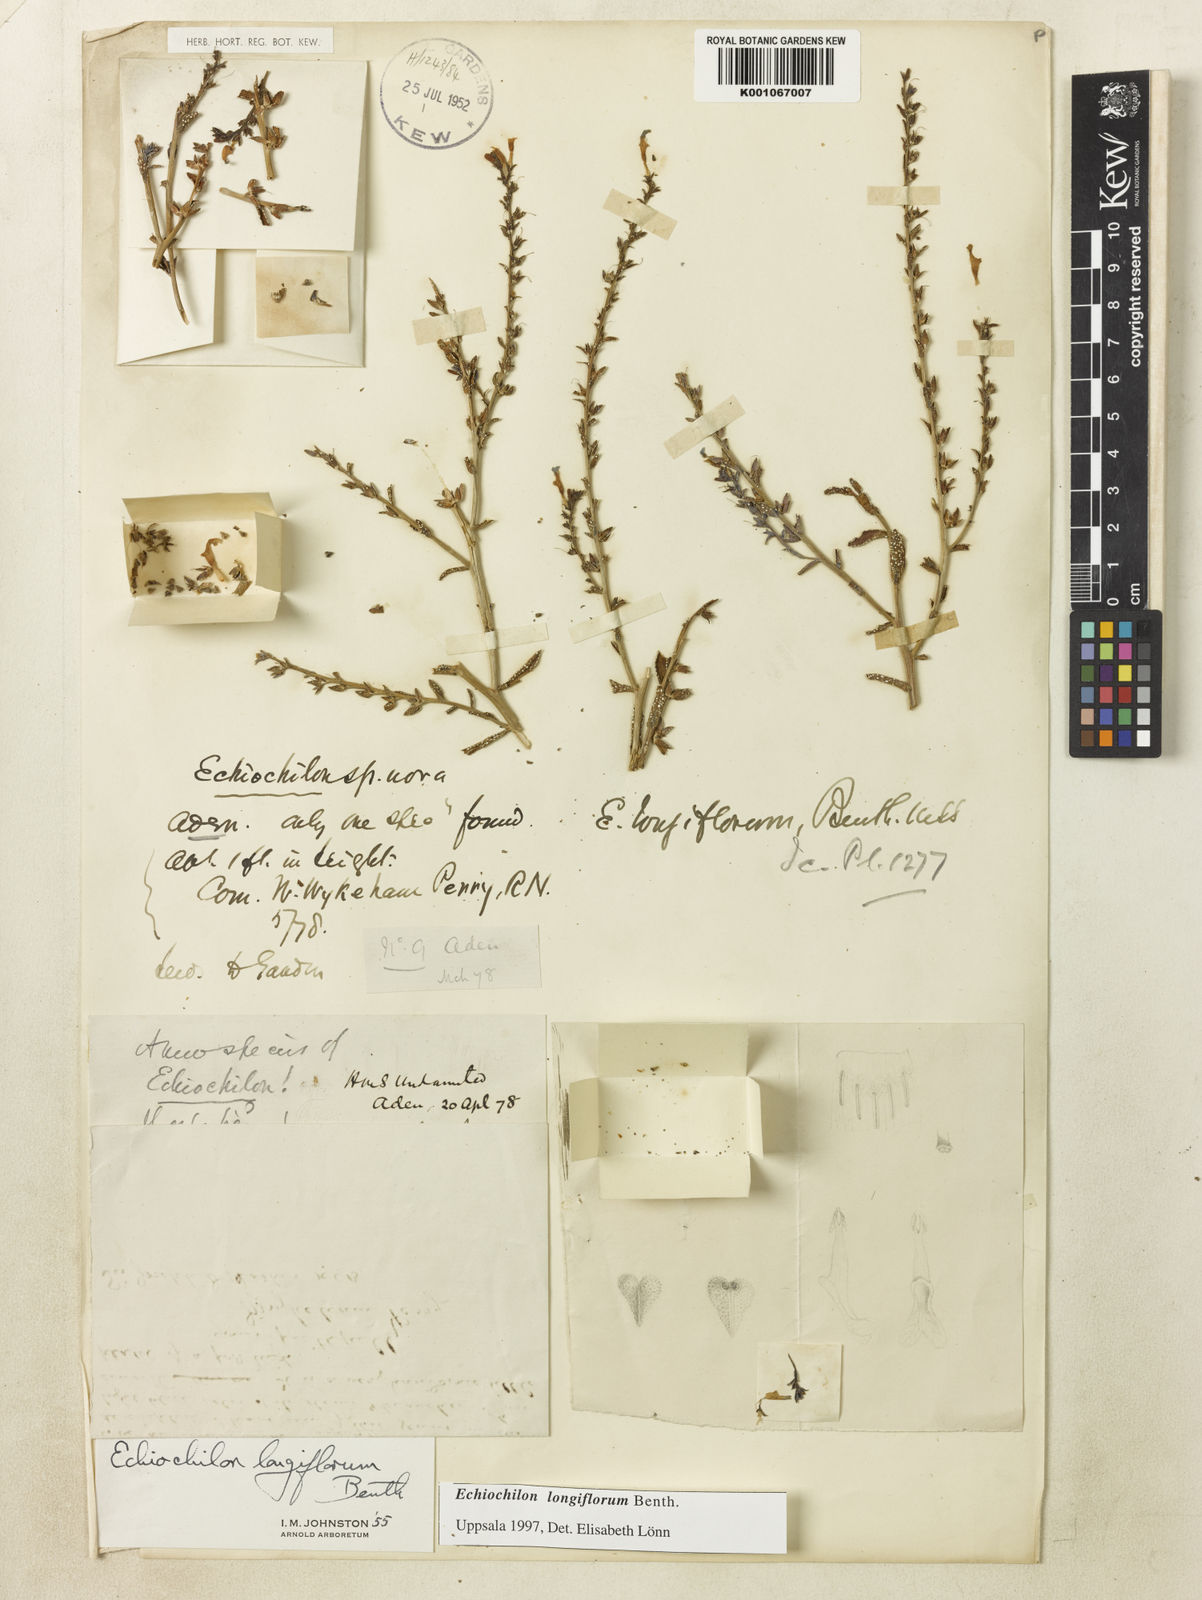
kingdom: Plantae
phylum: Tracheophyta
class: Magnoliopsida
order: Boraginales
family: Boraginaceae
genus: Echiochilon
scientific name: Echiochilon longiflorum
